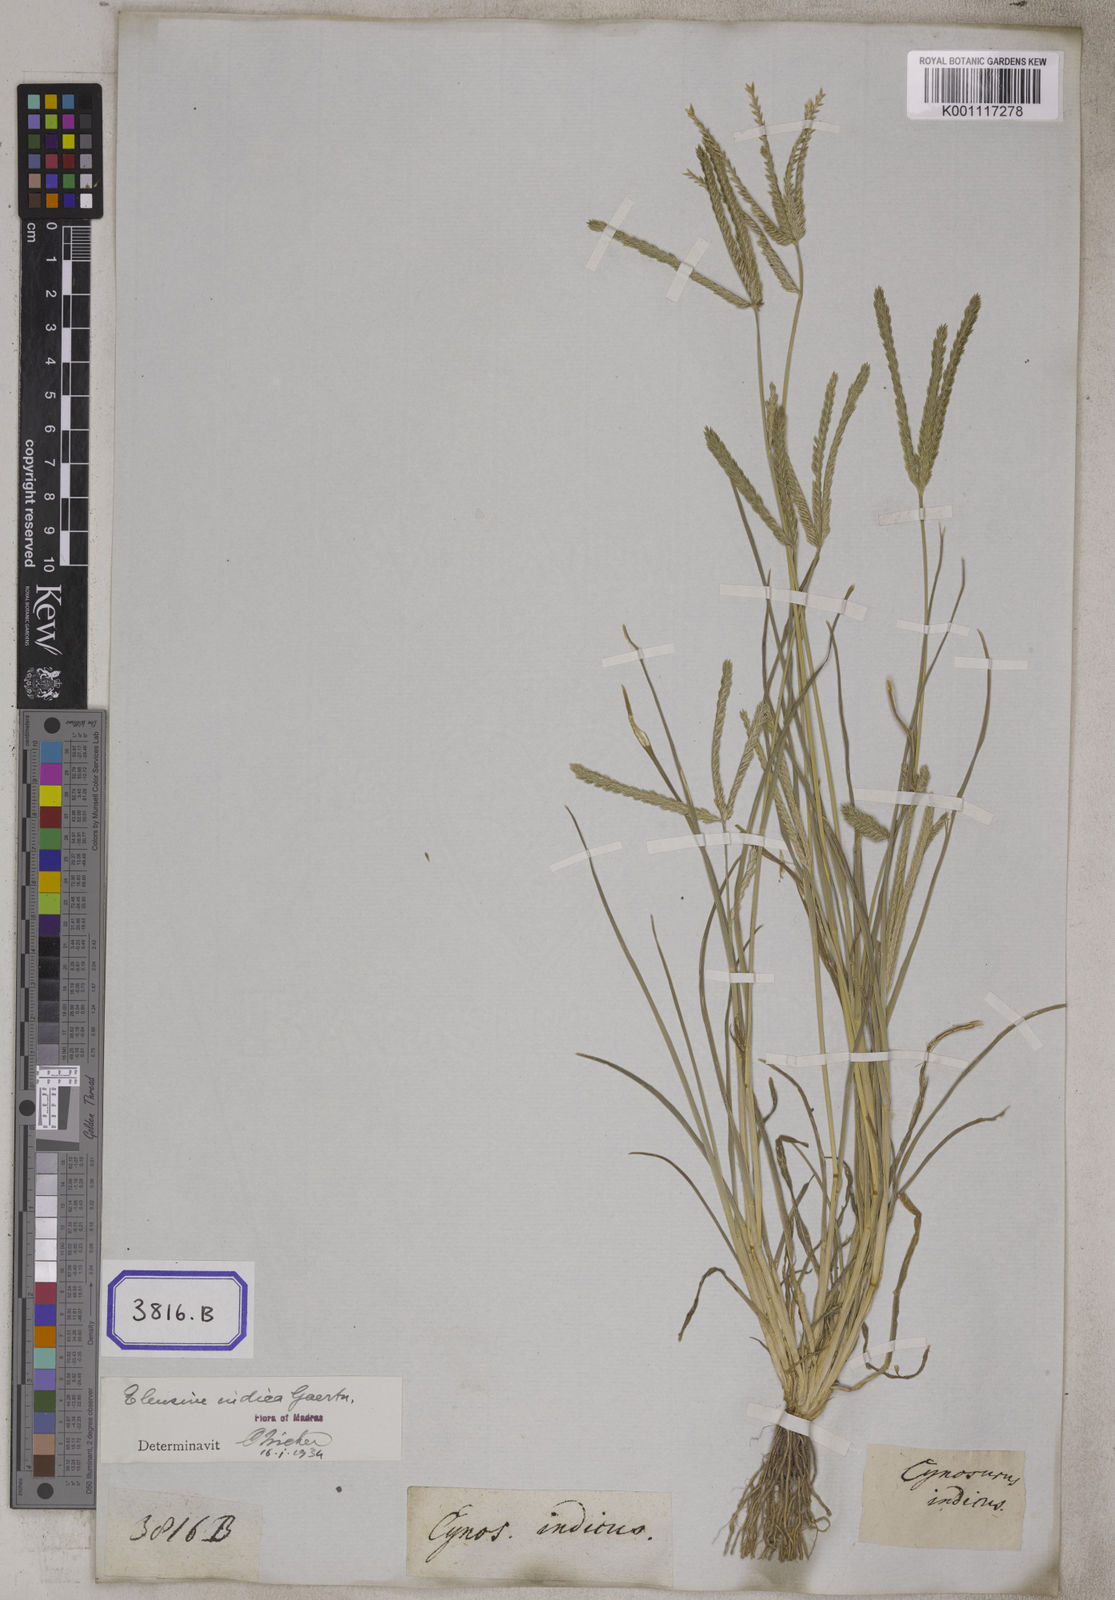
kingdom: Plantae
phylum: Tracheophyta
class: Liliopsida
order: Poales
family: Poaceae
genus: Eleusine
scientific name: Eleusine
